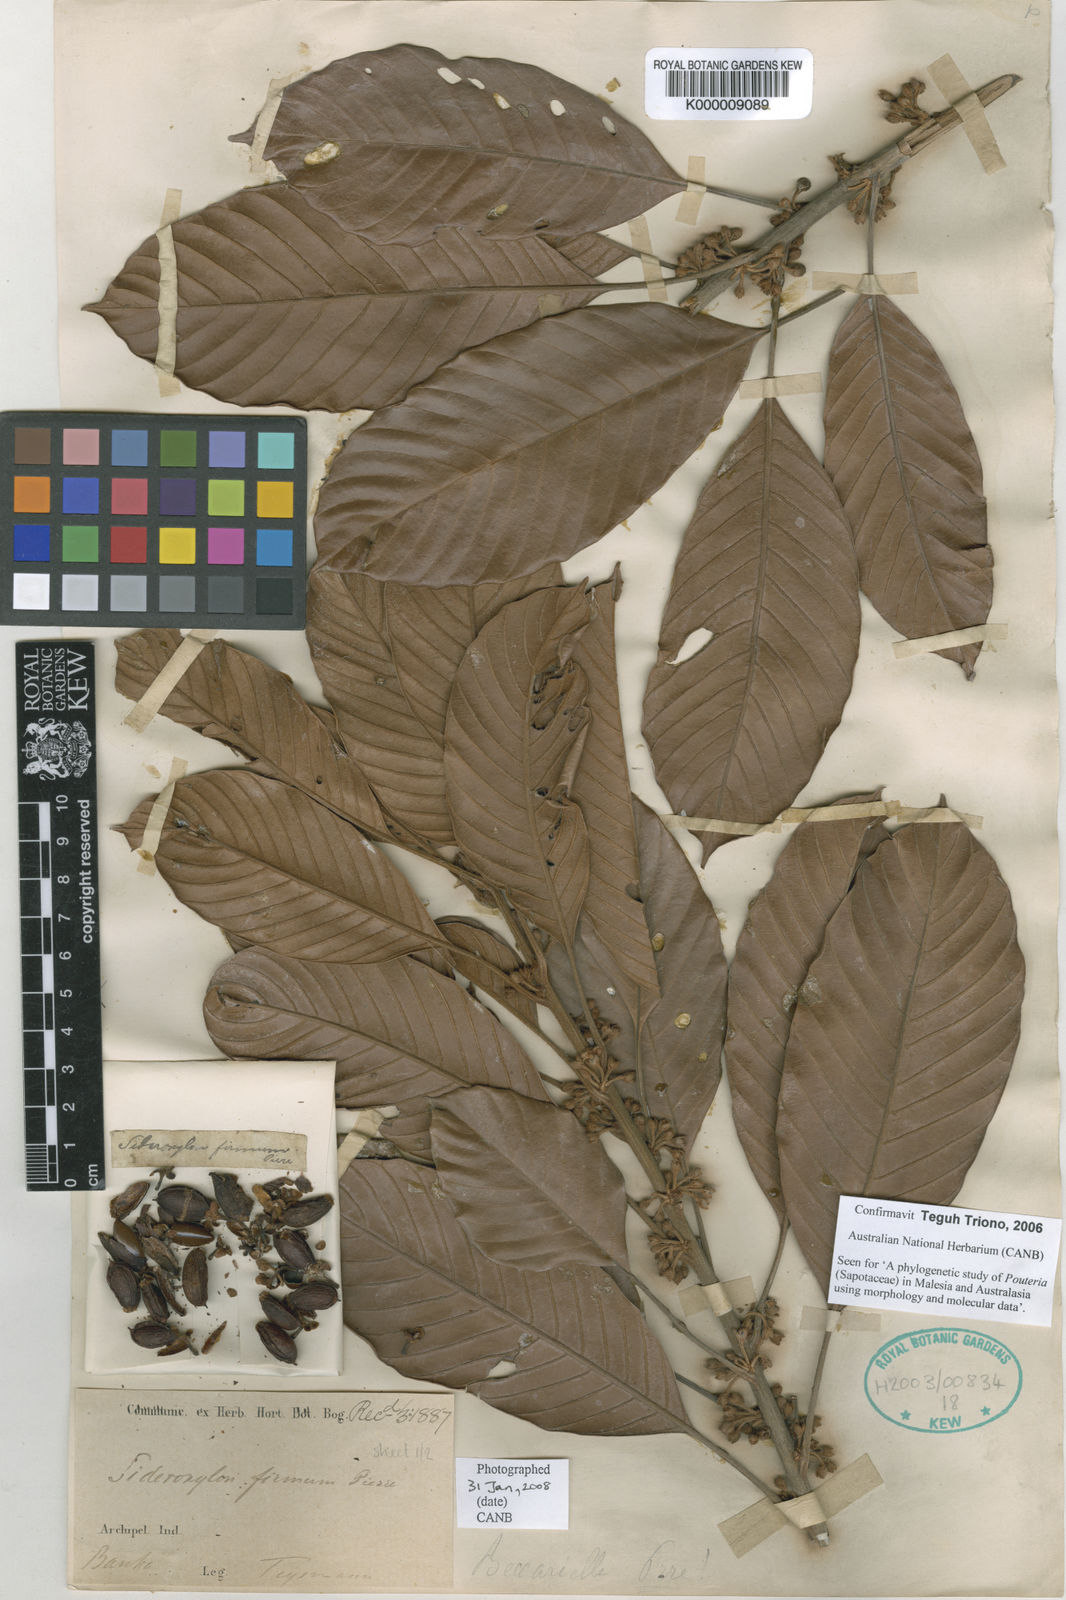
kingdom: Plantae
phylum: Tracheophyta
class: Magnoliopsida
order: Ericales
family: Sapotaceae
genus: Pleioluma
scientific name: Pleioluma firma
